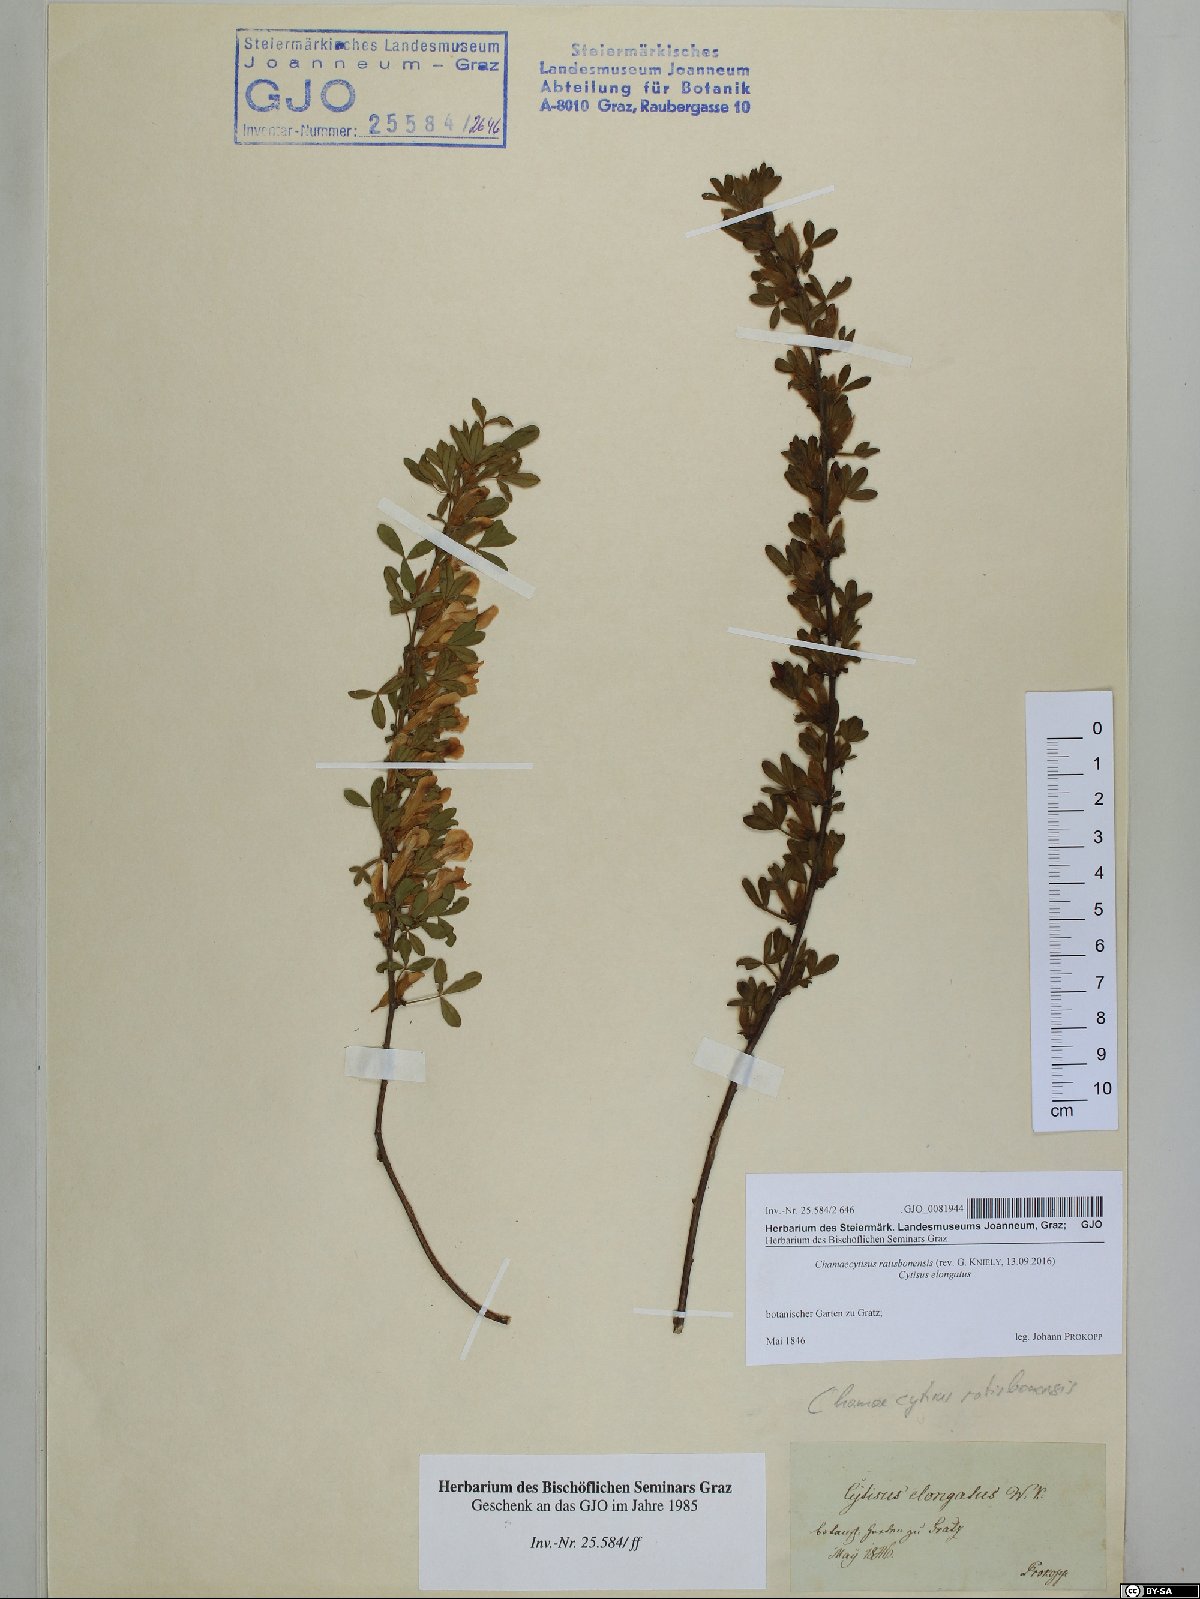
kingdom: Plantae
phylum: Tracheophyta
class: Magnoliopsida
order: Fabales
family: Fabaceae
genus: Chamaecytisus
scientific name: Chamaecytisus ratisbonensis
